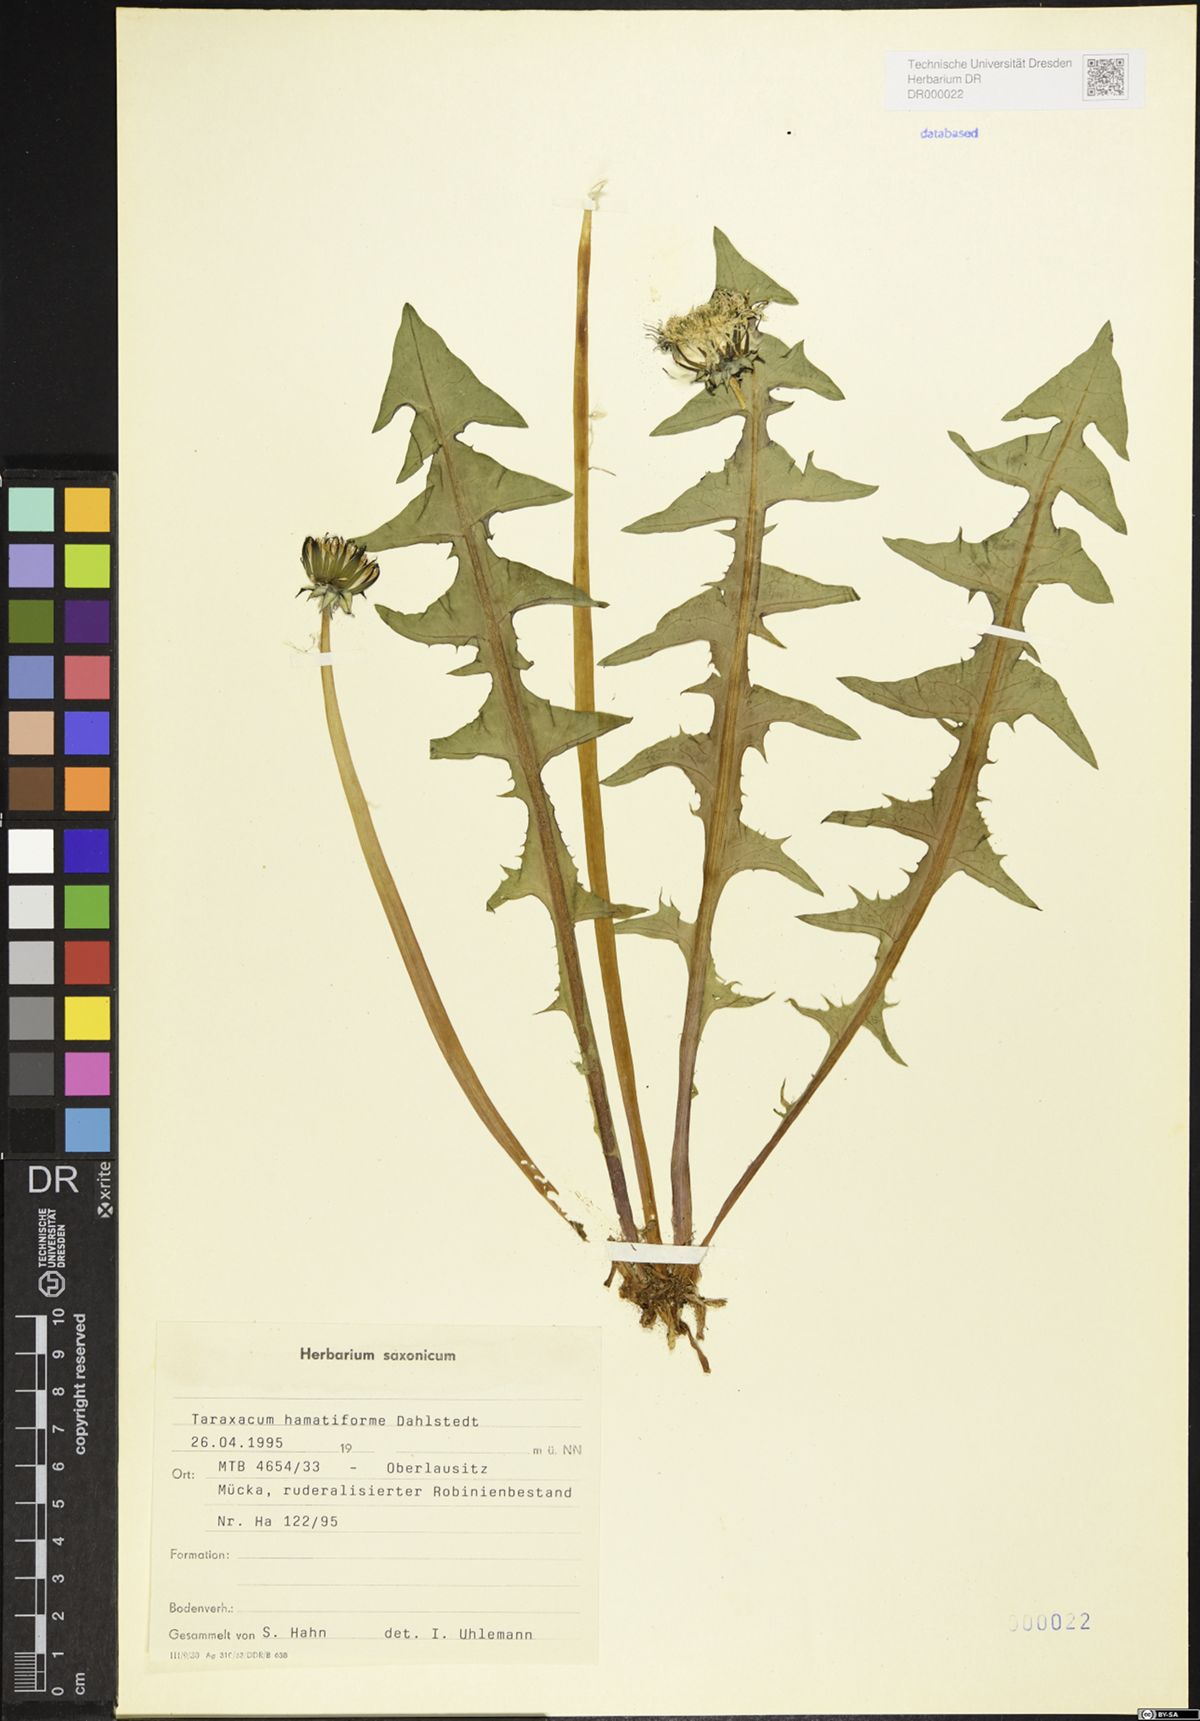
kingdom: Plantae
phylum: Tracheophyta
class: Magnoliopsida
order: Asterales
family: Asteraceae
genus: Taraxacum
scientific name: Taraxacum hamatiforme
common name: Asymmetrical hook-lobed dandelion
